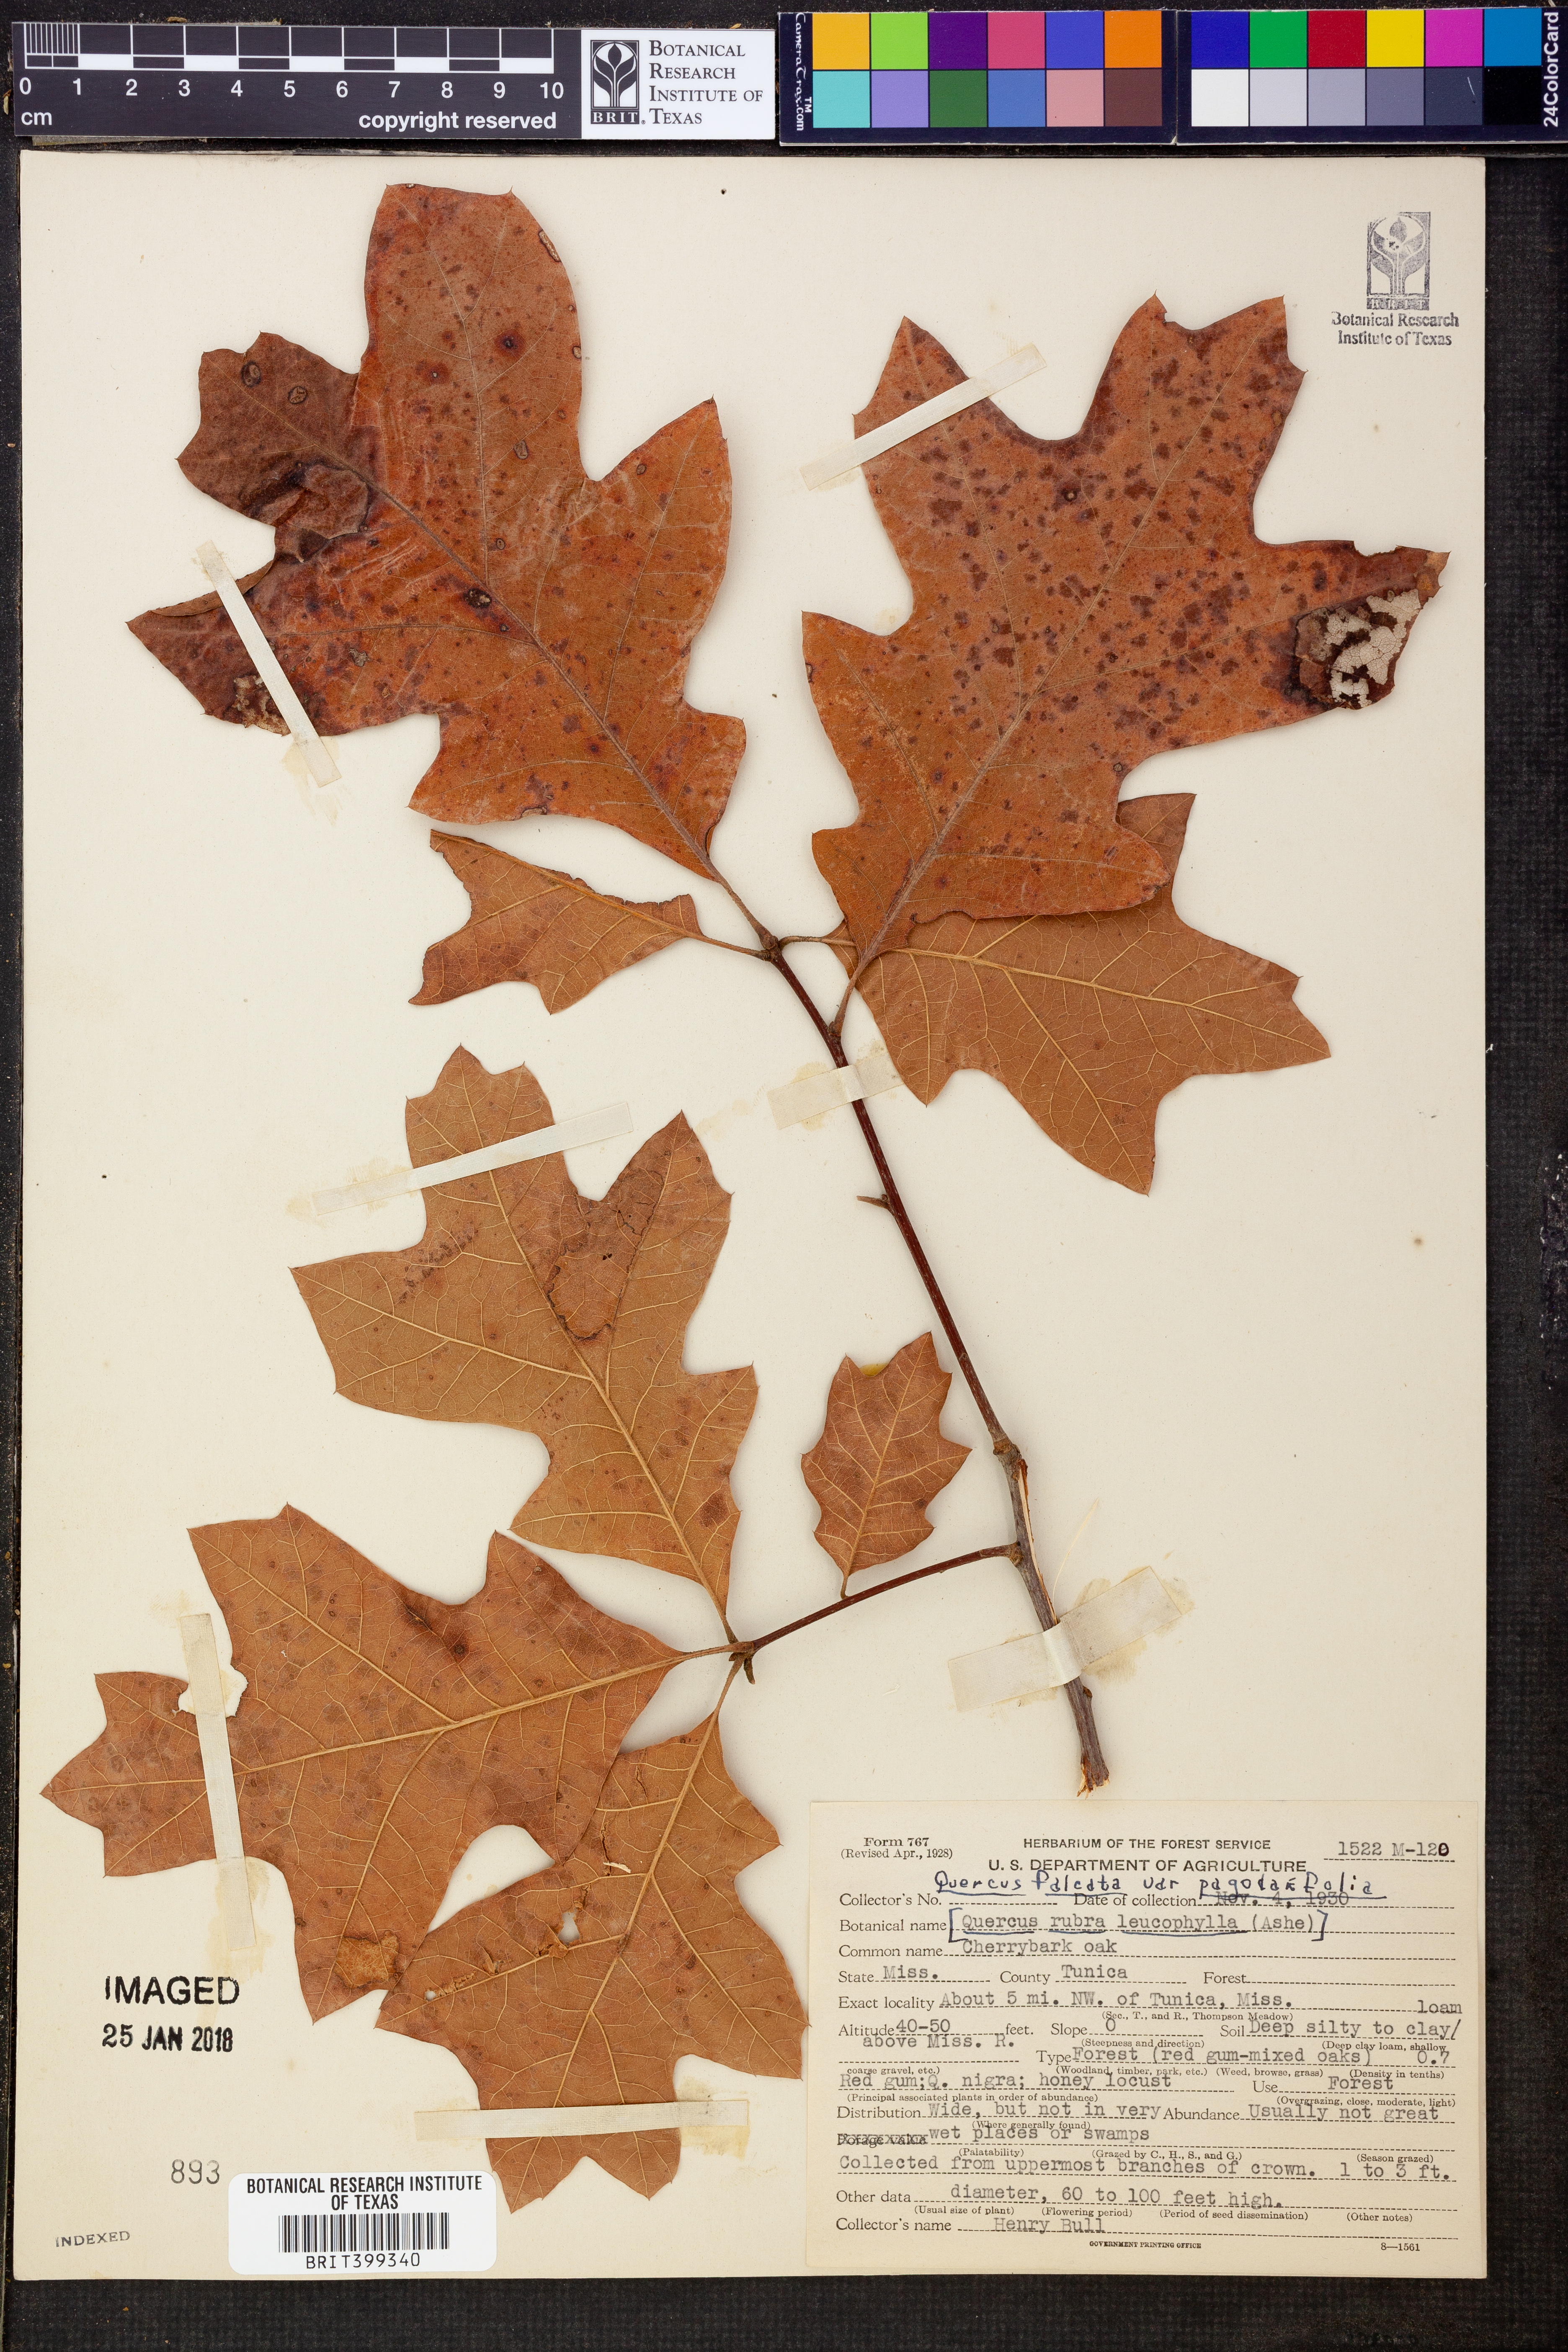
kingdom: Plantae
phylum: Tracheophyta
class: Magnoliopsida
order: Fagales
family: Fagaceae
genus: Quercus
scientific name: Quercus pagoda
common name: Cherrybark oak
